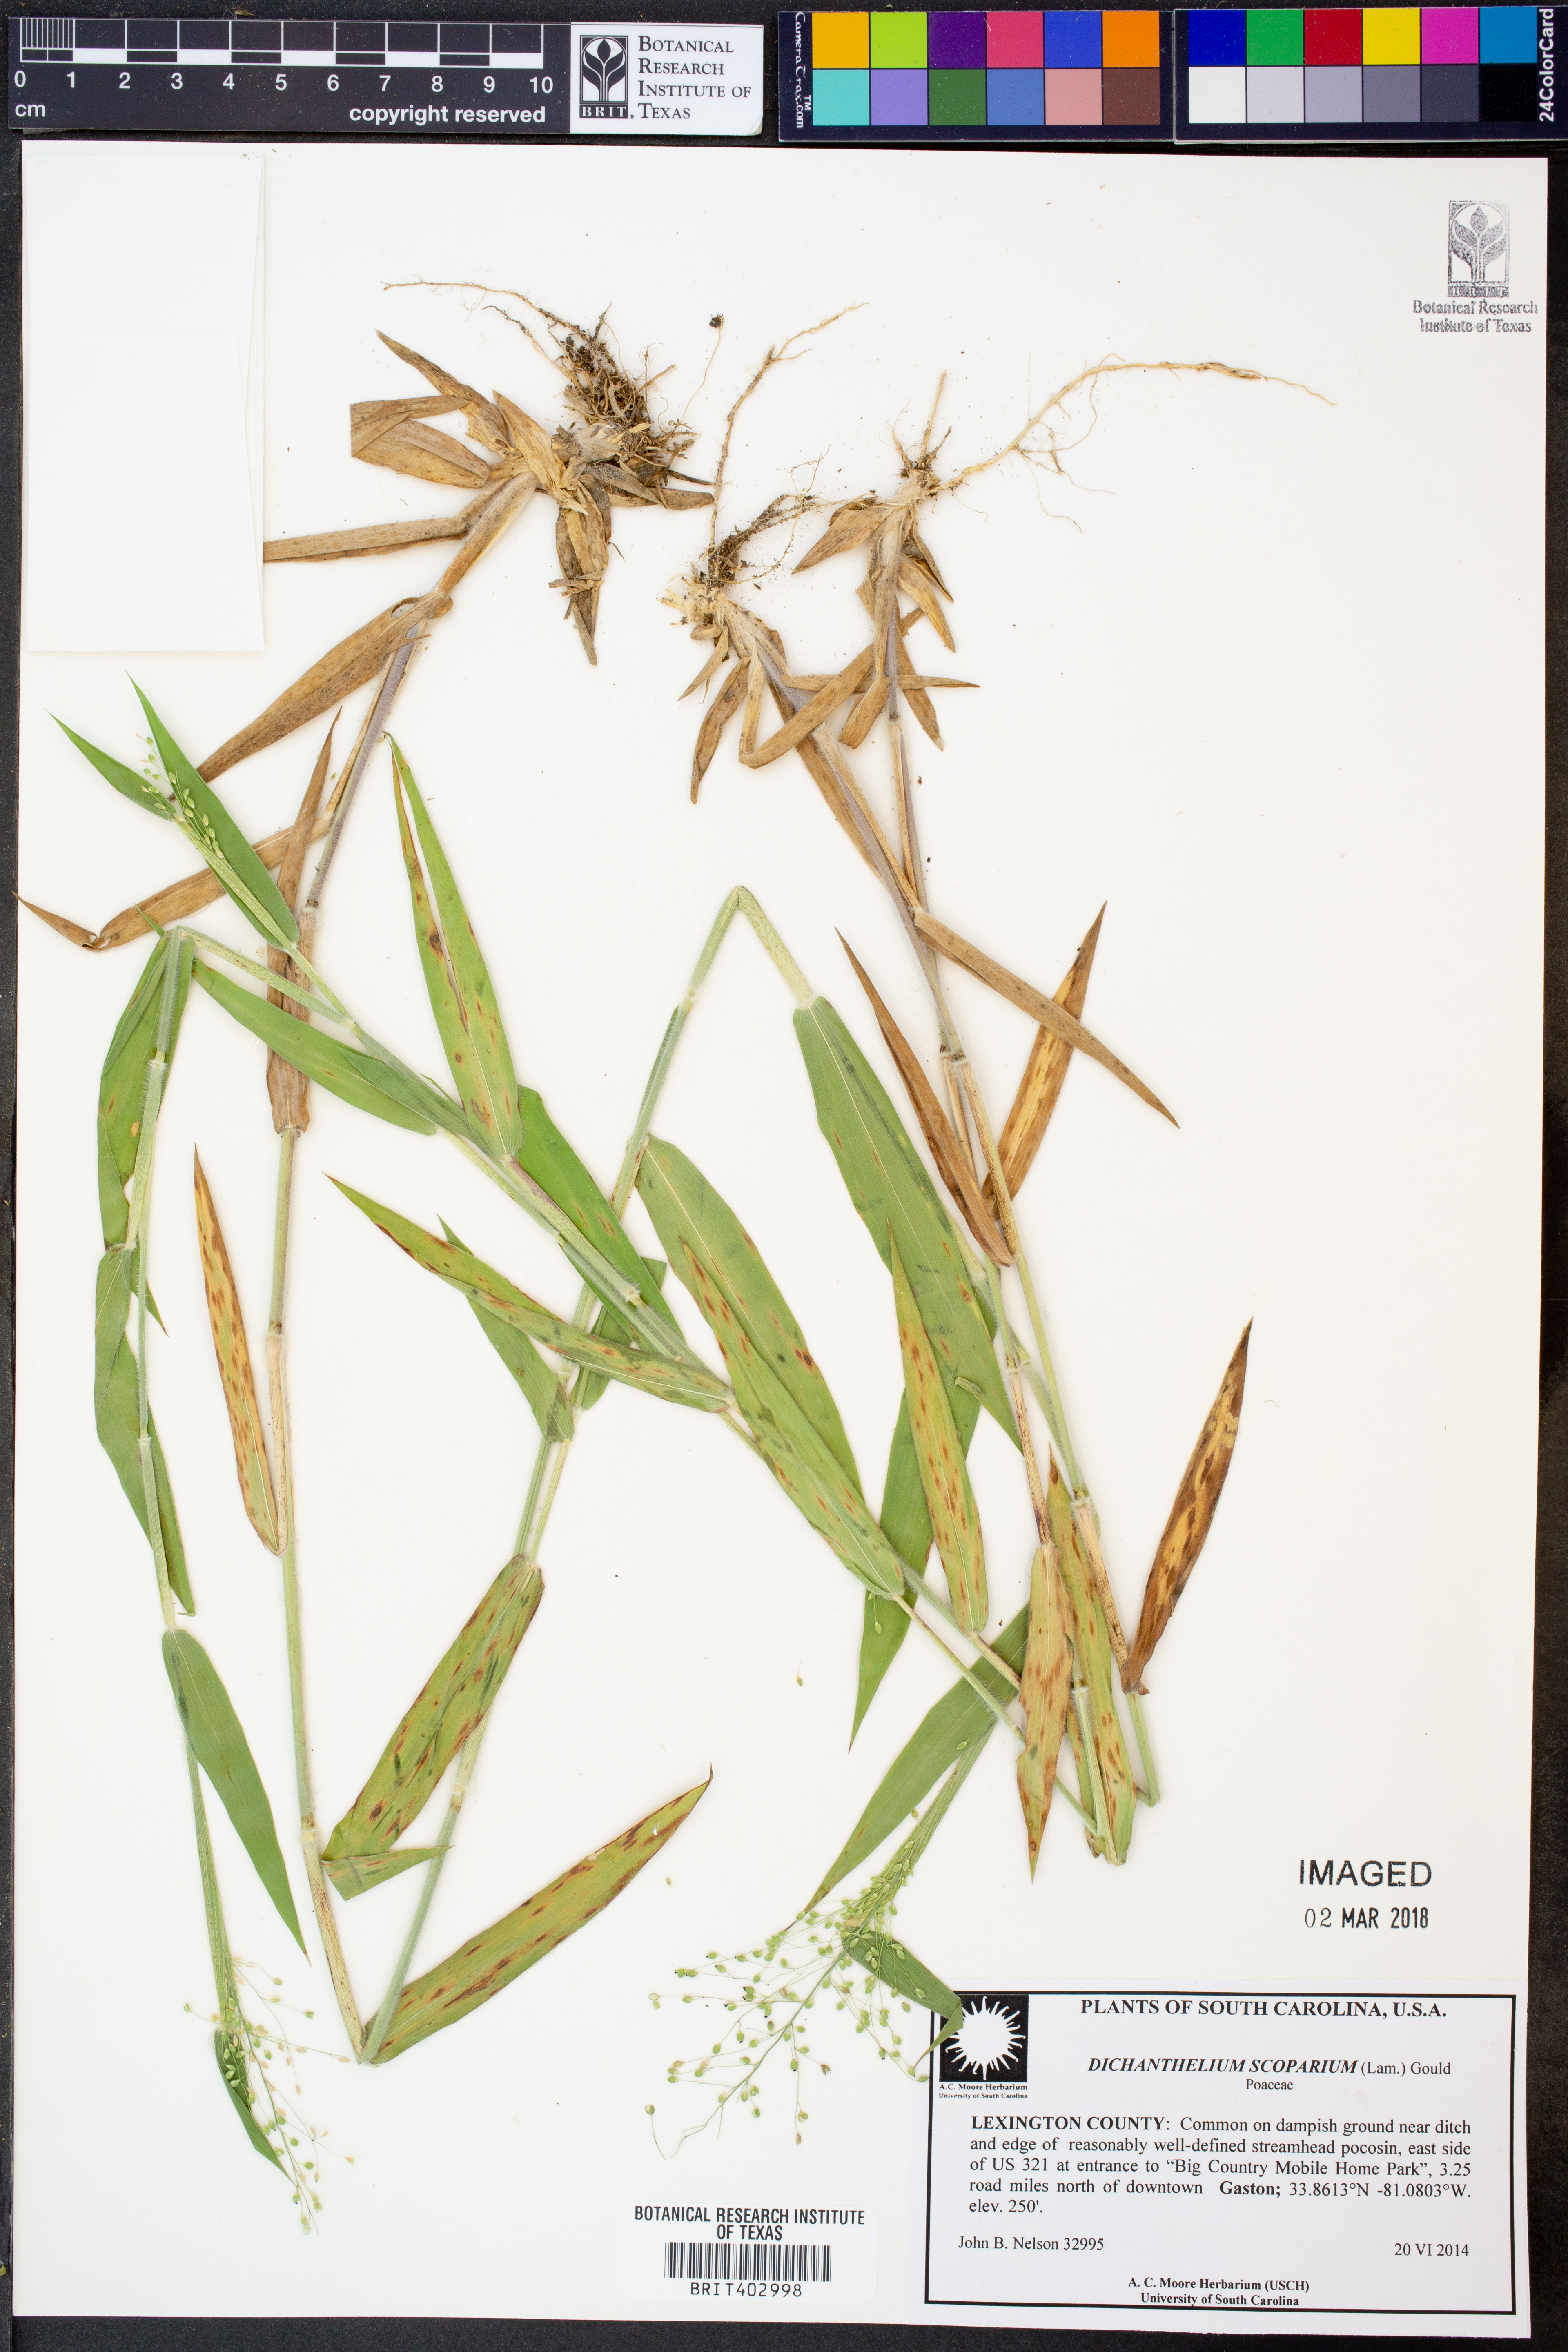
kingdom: Plantae
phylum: Tracheophyta
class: Liliopsida
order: Poales
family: Poaceae
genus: Dichanthelium
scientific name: Dichanthelium scoparium
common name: Velvety panic grass
